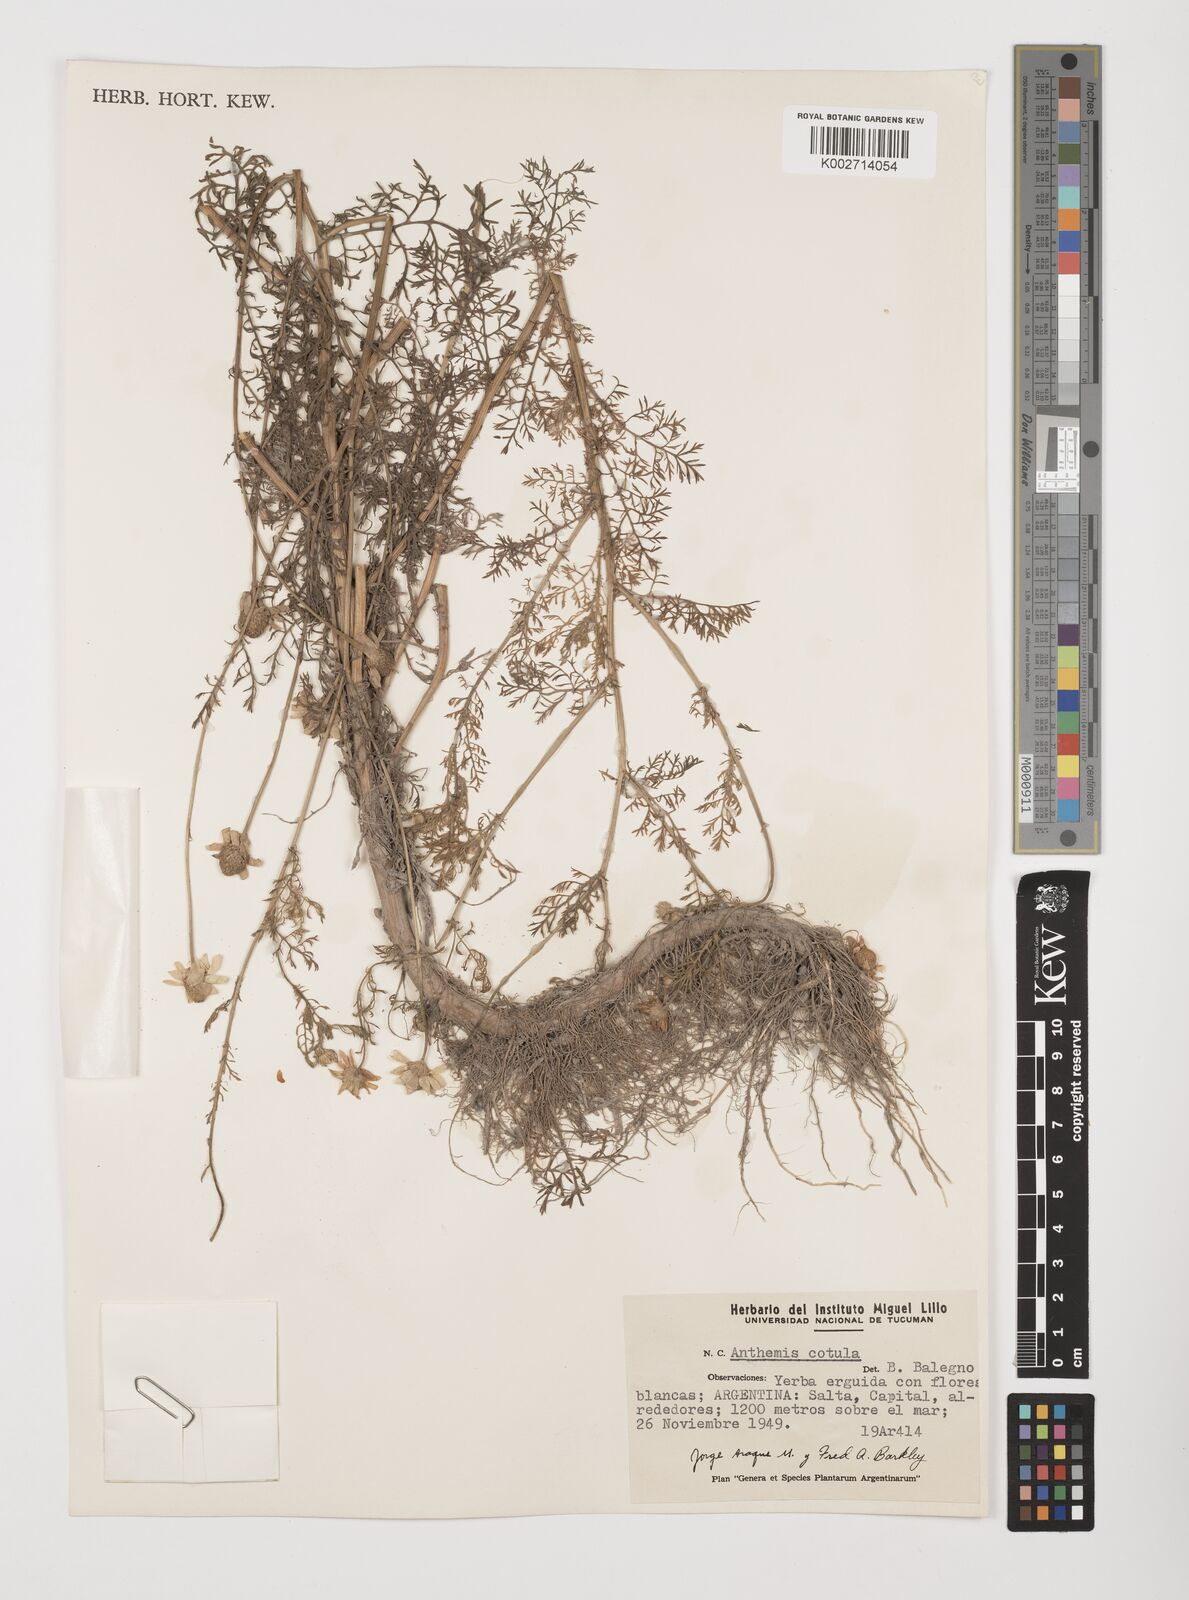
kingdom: Plantae
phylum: Tracheophyta
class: Magnoliopsida
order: Asterales
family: Asteraceae
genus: Anthemis
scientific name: Anthemis cotula
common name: Stinking chamomile
